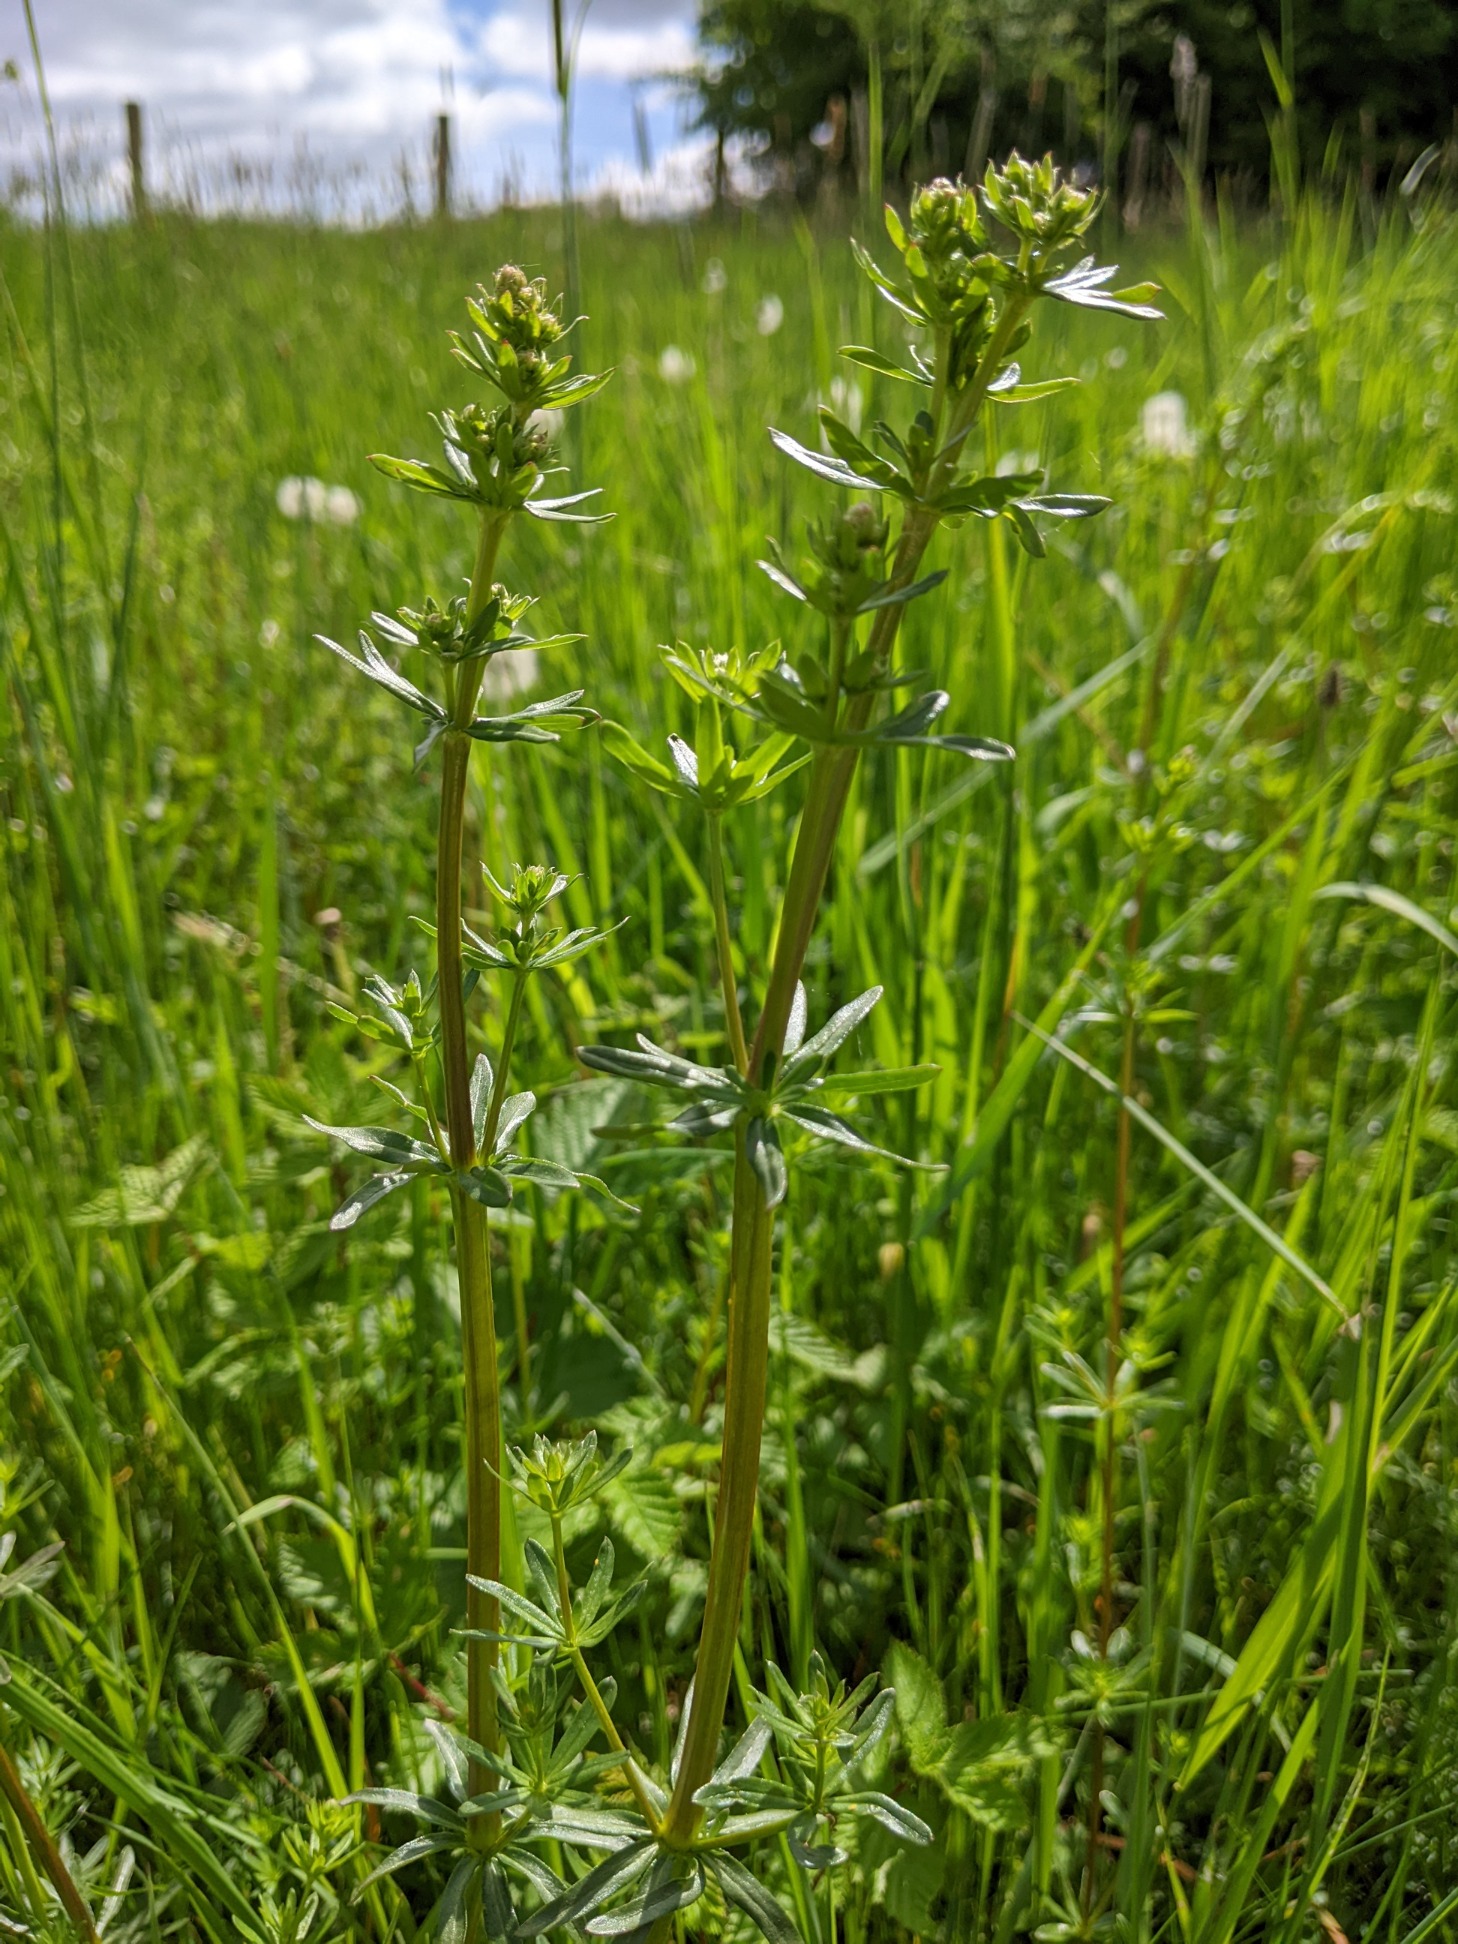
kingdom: Plantae
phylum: Tracheophyta
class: Magnoliopsida
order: Gentianales
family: Rubiaceae
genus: Galium
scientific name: Galium album
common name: Smalbladet snerre
